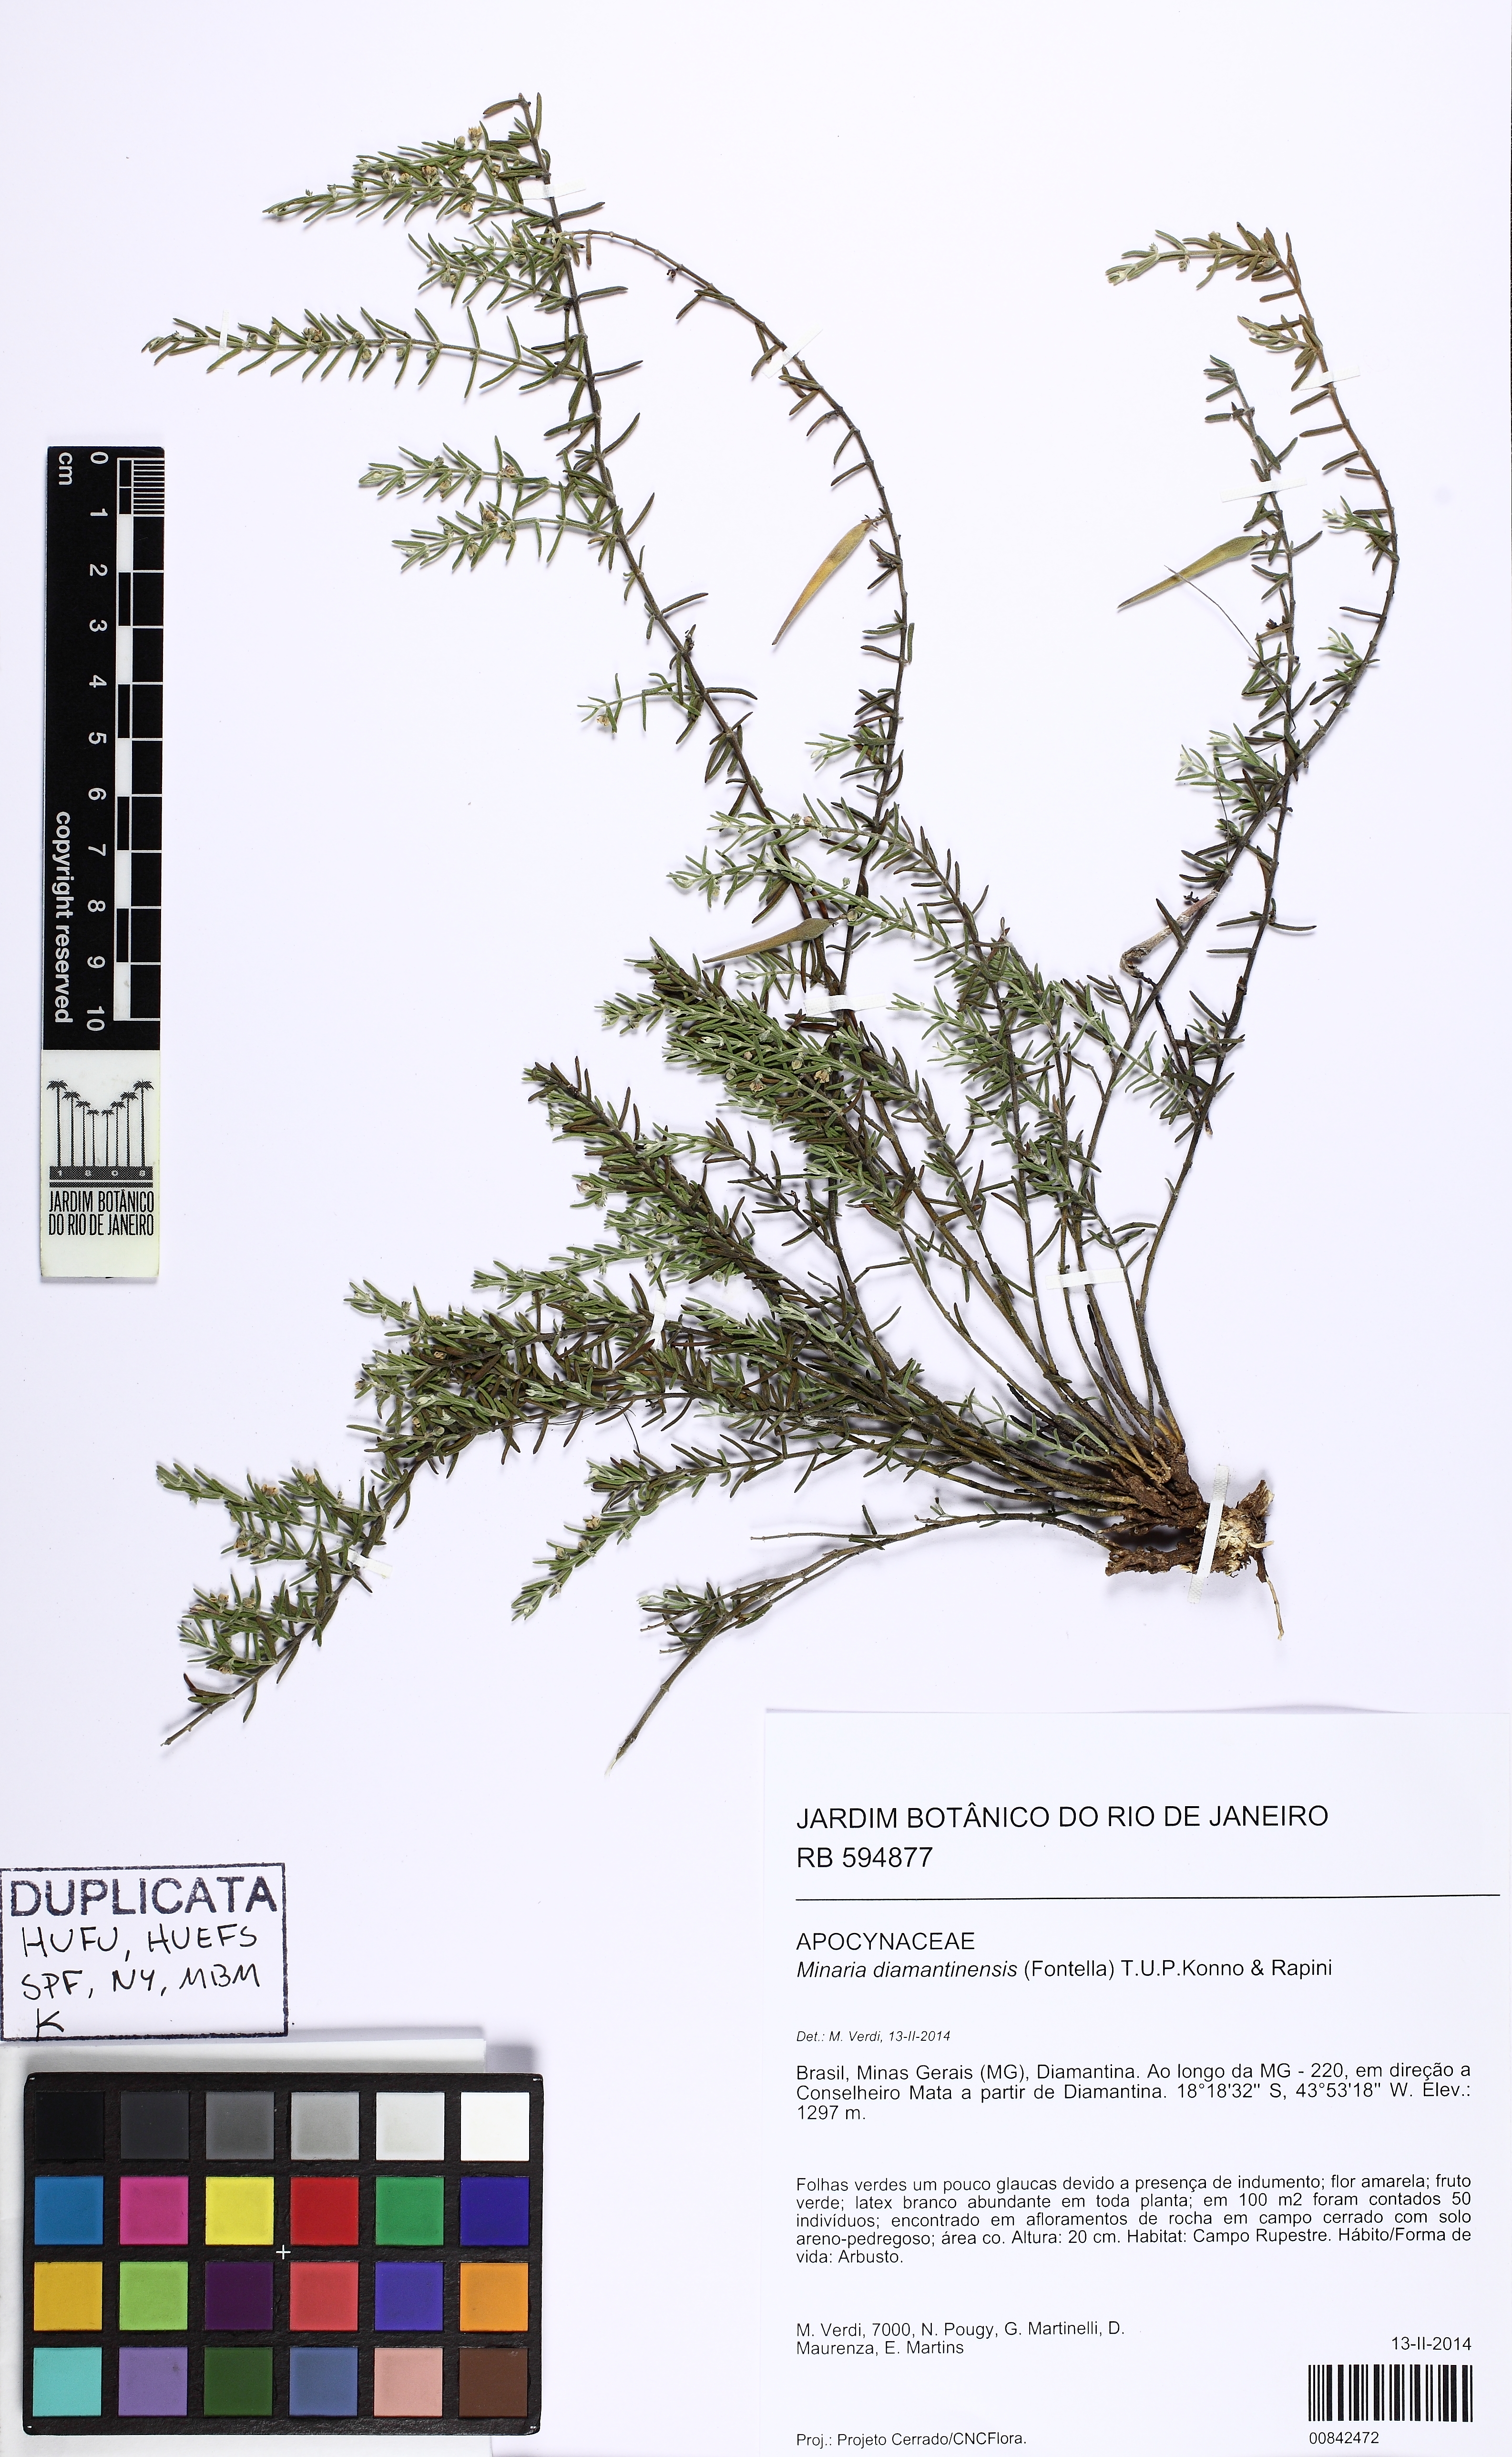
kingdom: Plantae
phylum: Tracheophyta
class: Magnoliopsida
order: Gentianales
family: Apocynaceae
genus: Minaria
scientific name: Minaria diamantinensis
